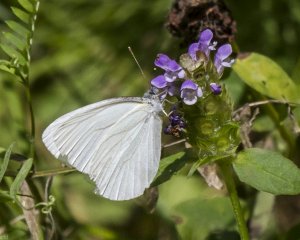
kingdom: Animalia
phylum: Arthropoda
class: Insecta
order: Lepidoptera
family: Pieridae
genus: Pieris
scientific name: Pieris oleracea
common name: Mustard White
